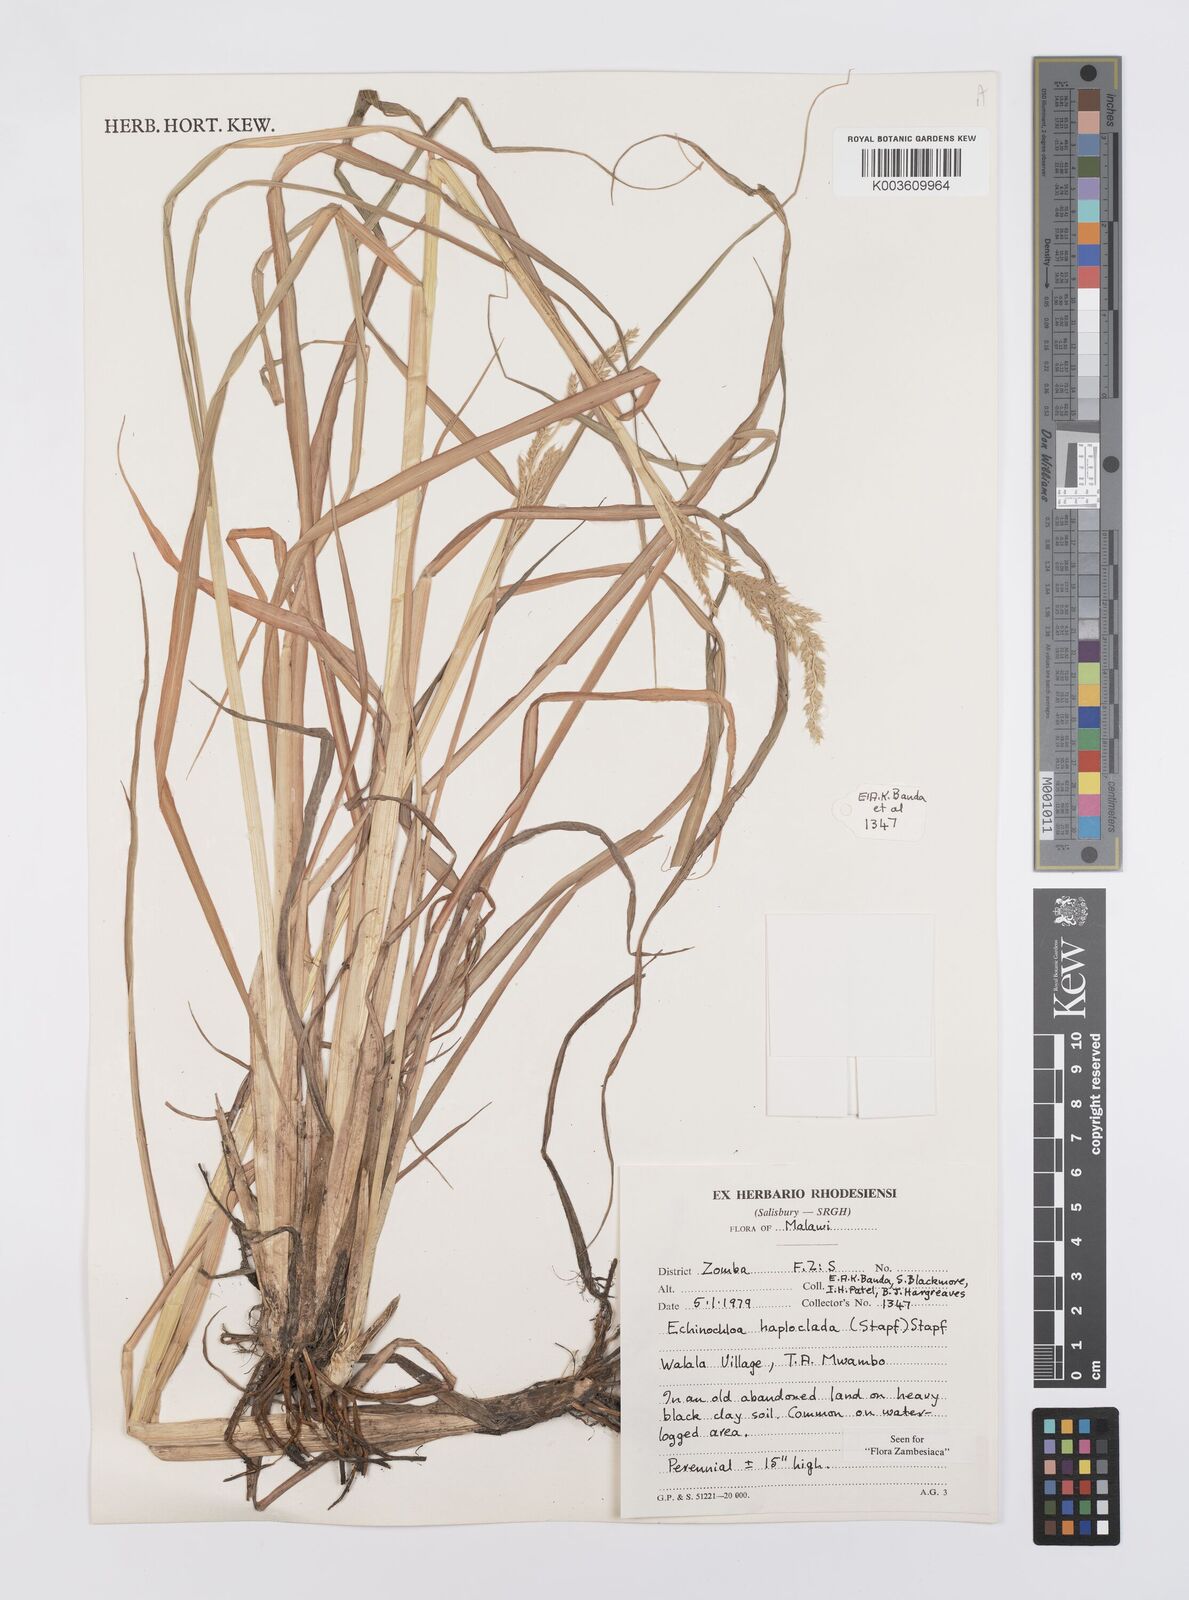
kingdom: Plantae
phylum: Tracheophyta
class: Liliopsida
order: Poales
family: Poaceae
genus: Echinochloa
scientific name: Echinochloa haploclada
